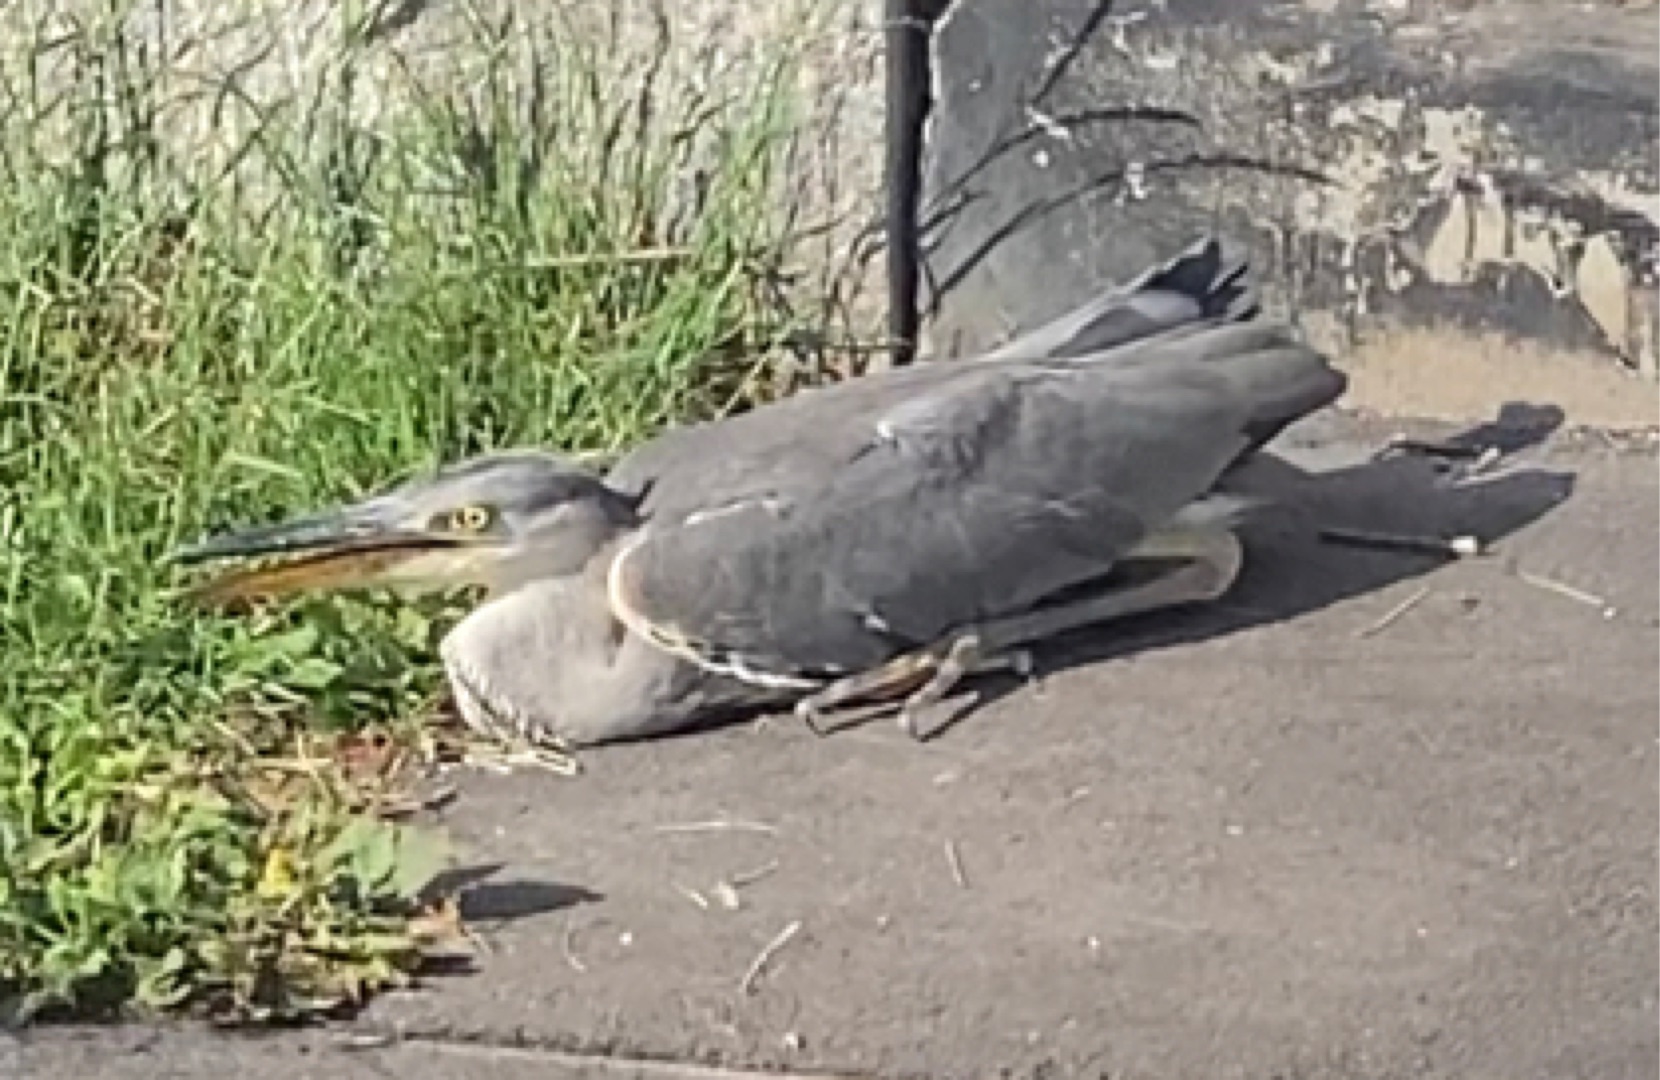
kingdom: Animalia
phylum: Chordata
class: Aves
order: Pelecaniformes
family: Ardeidae
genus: Ardea
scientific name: Ardea cinerea
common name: Fiskehejre
